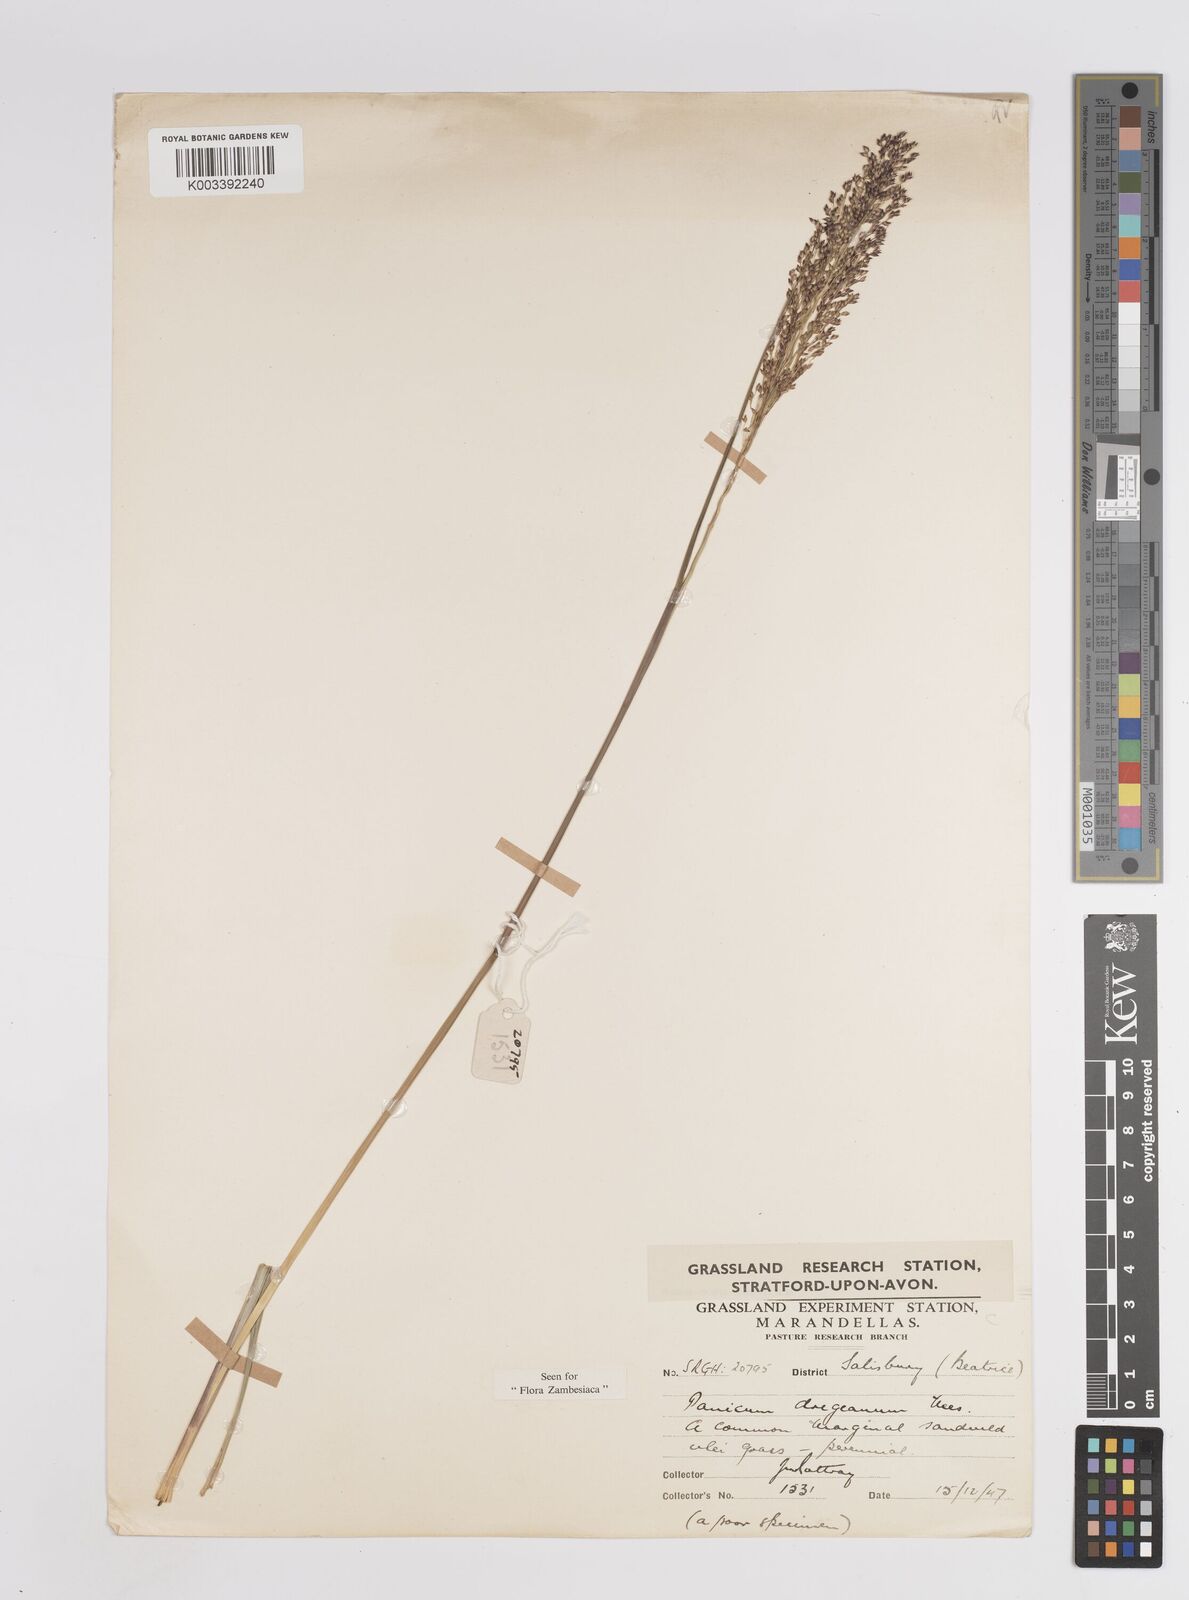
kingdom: Plantae
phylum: Tracheophyta
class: Liliopsida
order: Poales
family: Poaceae
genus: Panicum
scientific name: Panicum dregeanum
